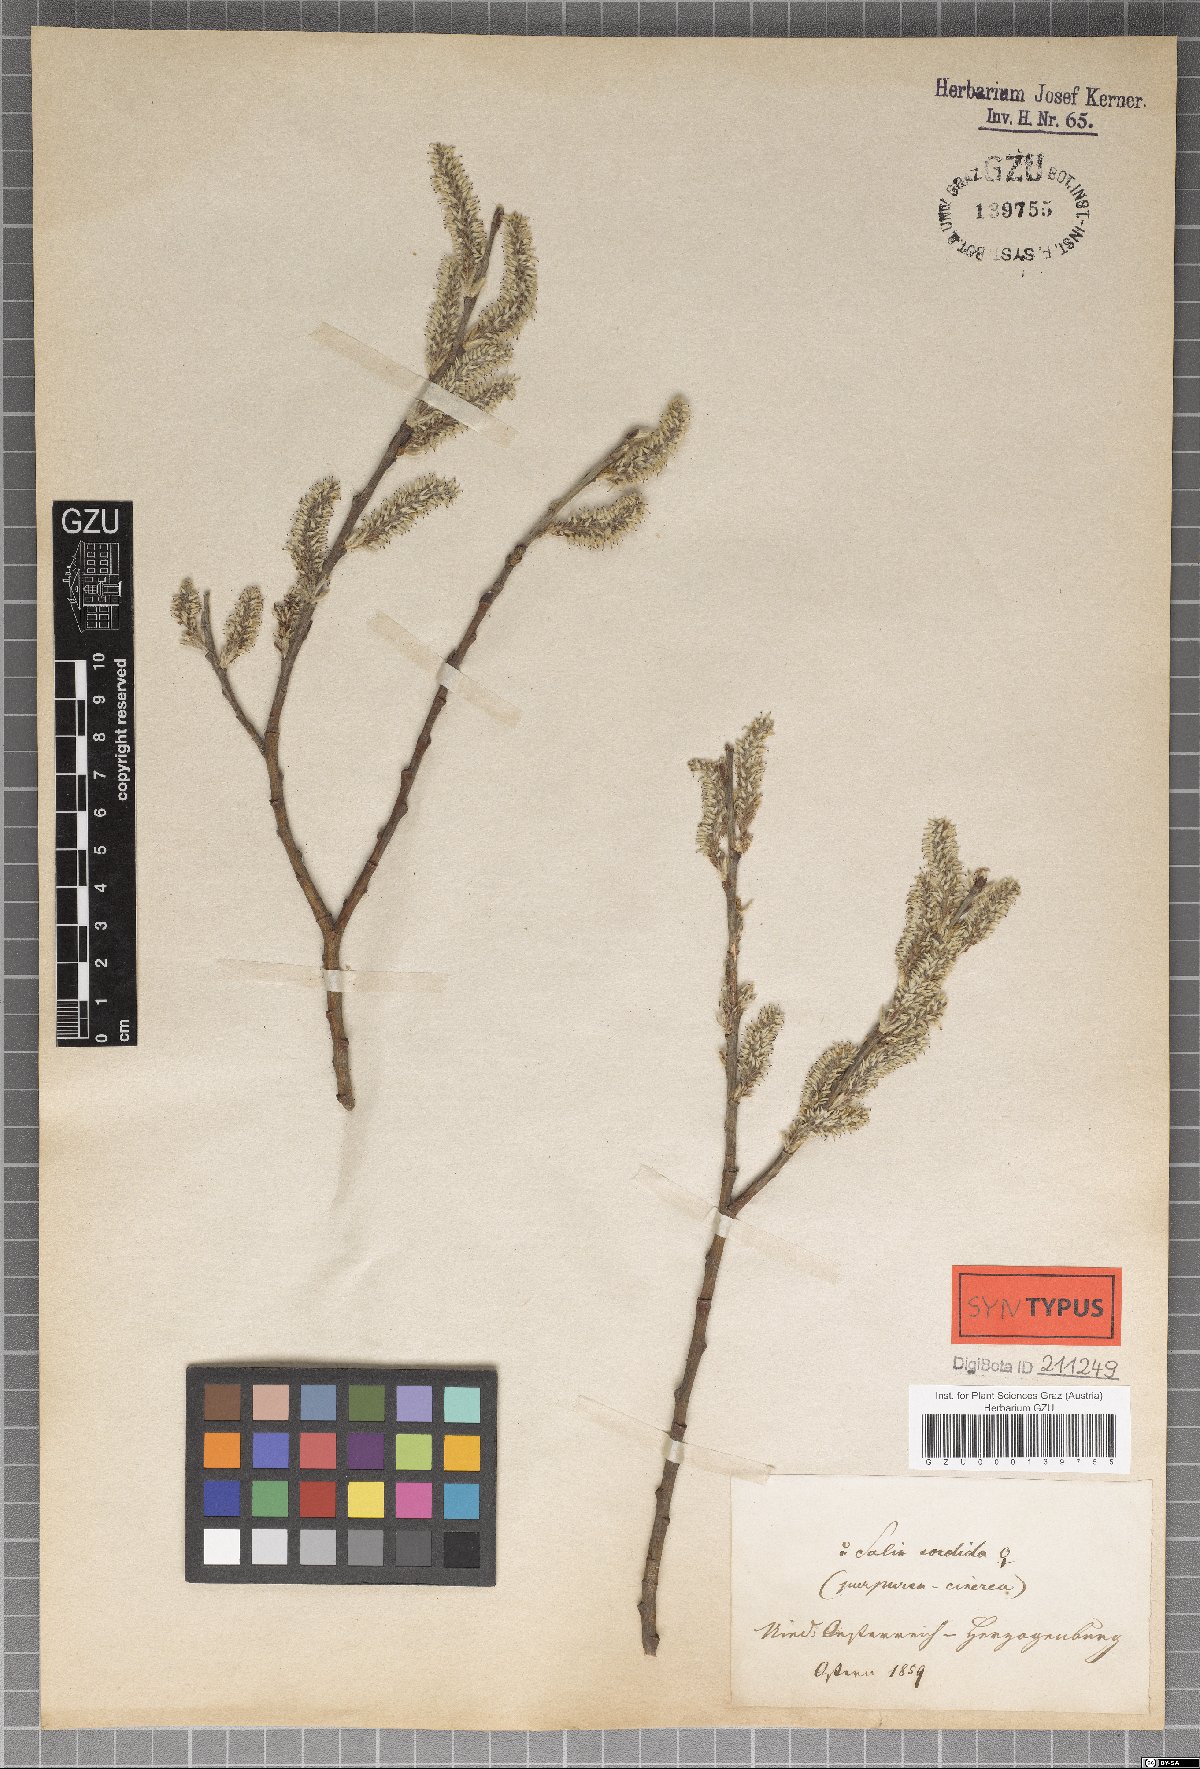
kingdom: Plantae
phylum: Tracheophyta
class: Magnoliopsida
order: Malpighiales
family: Salicaceae
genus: Salix
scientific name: Salix sordida
